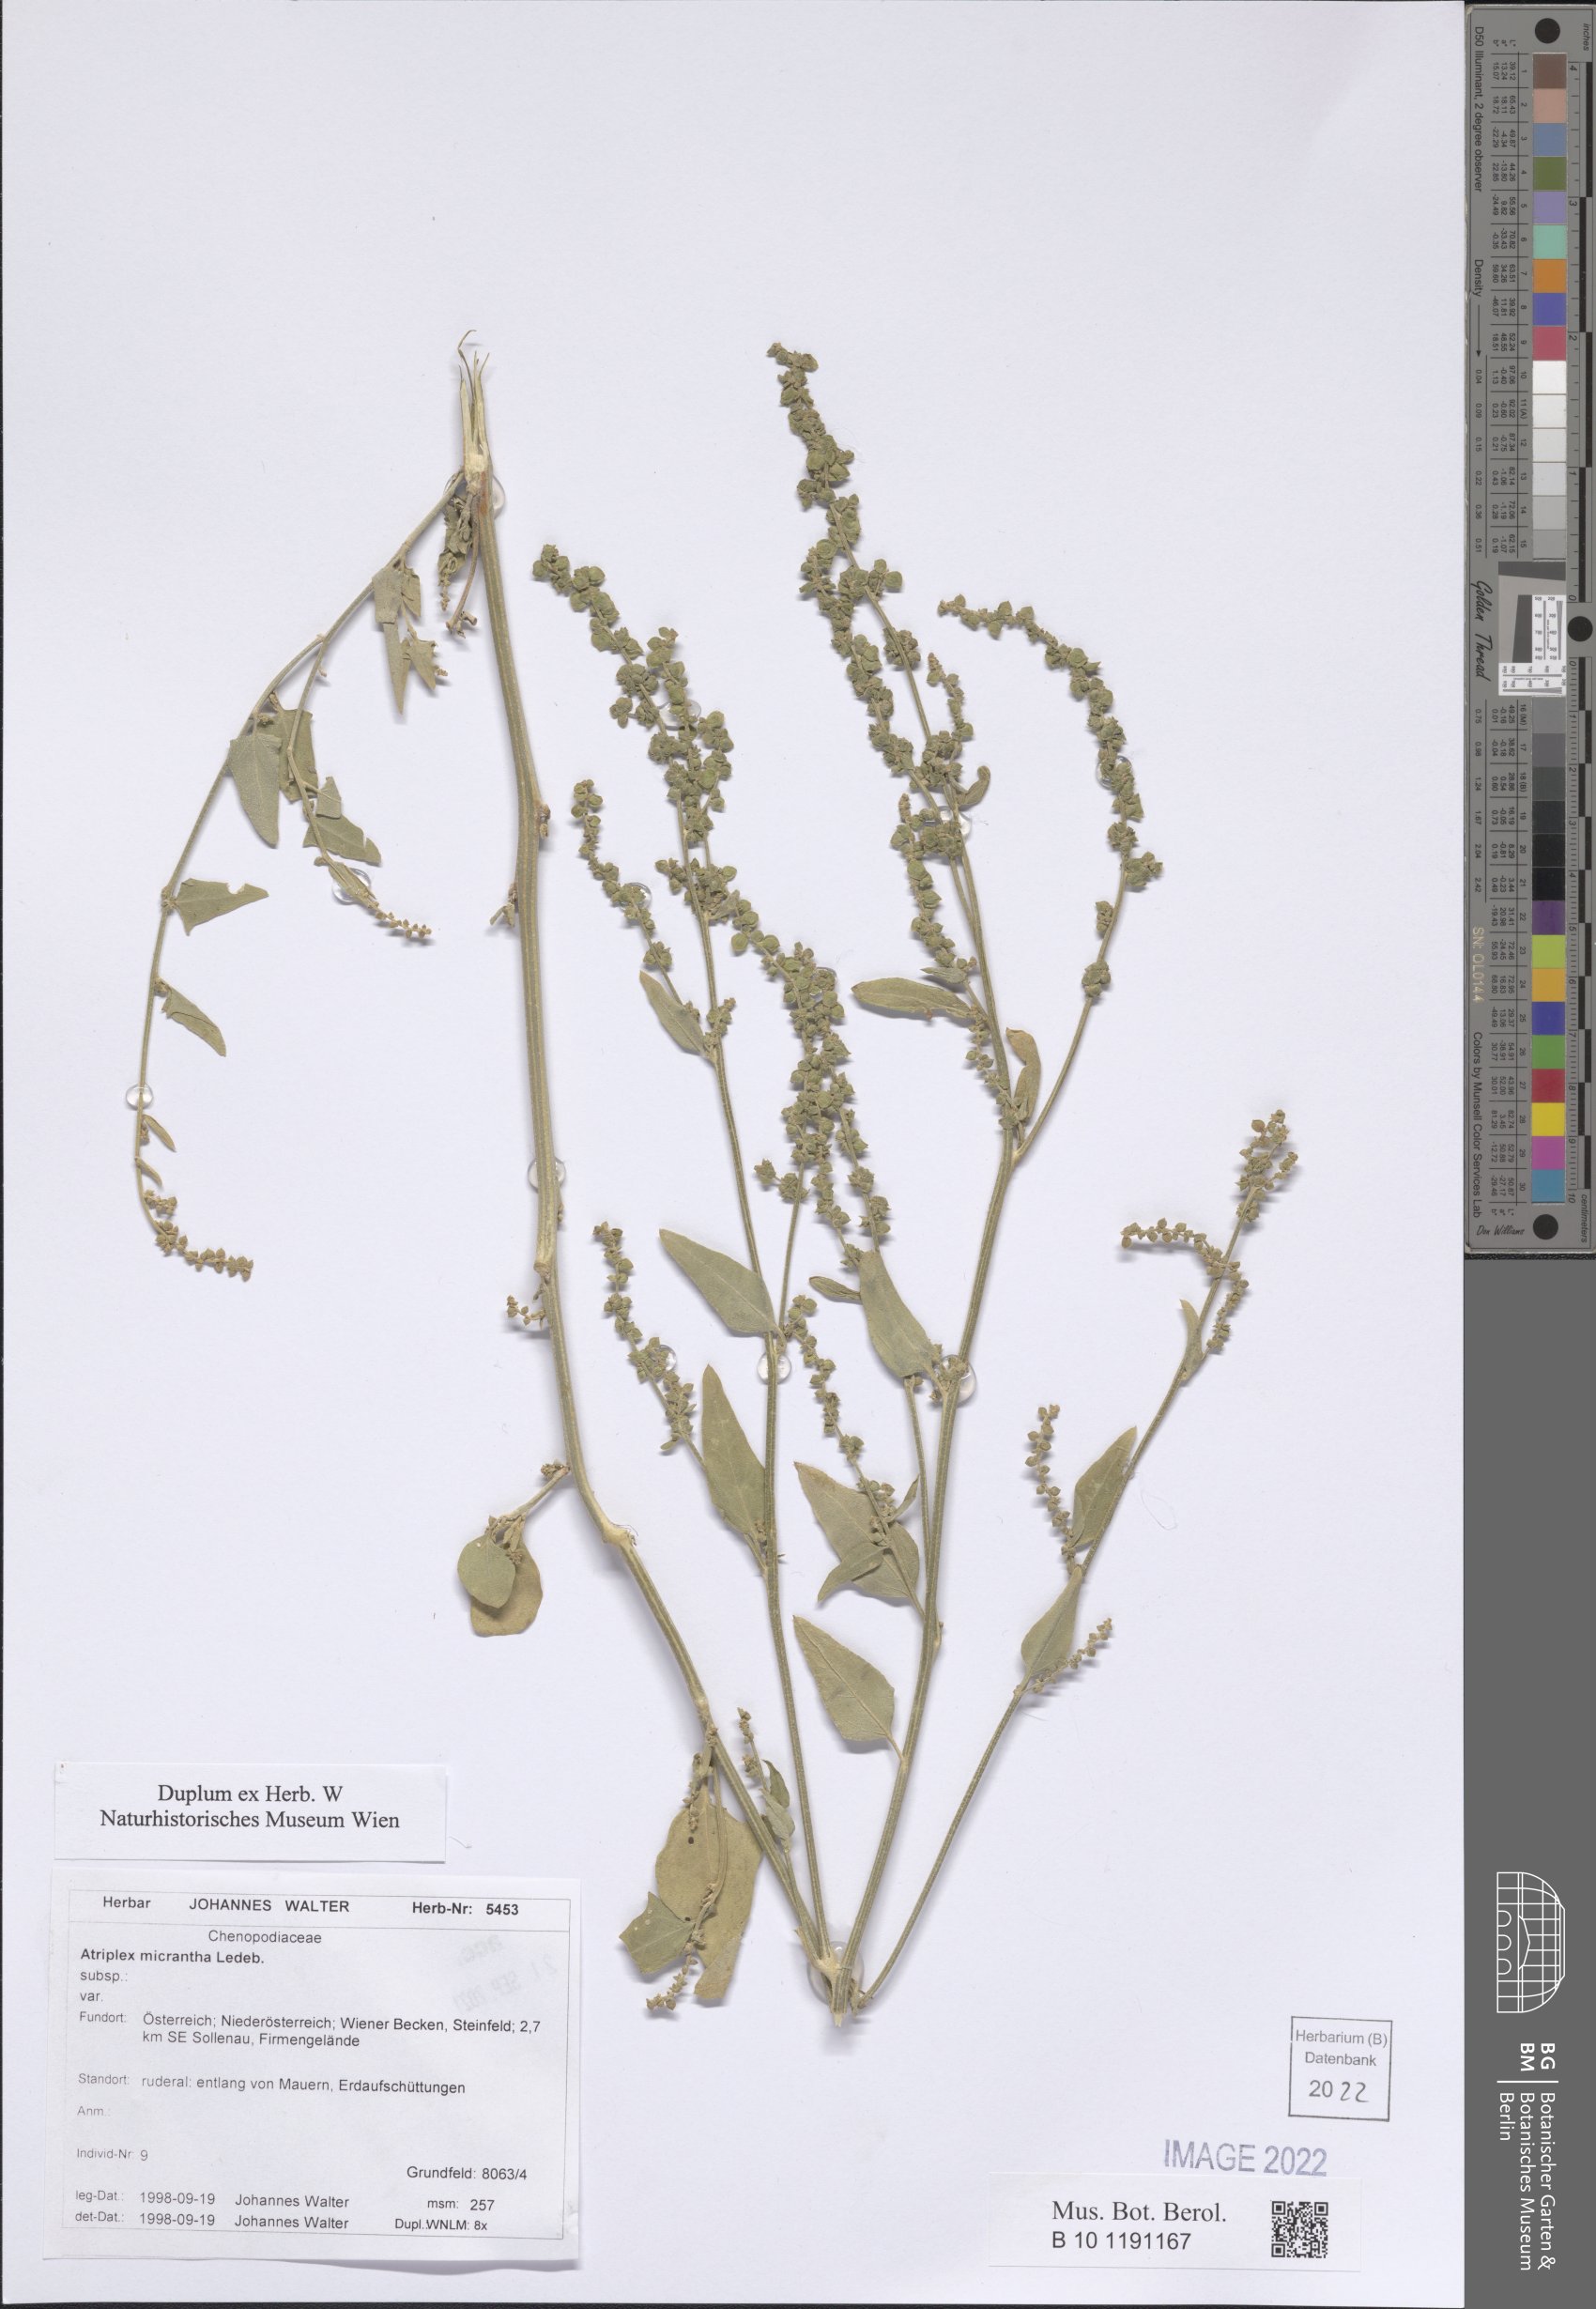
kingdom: Plantae
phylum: Tracheophyta
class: Magnoliopsida
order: Caryophyllales
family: Amaranthaceae
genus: Atriplex
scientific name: Atriplex micrantha
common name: Twoscale saltbush
